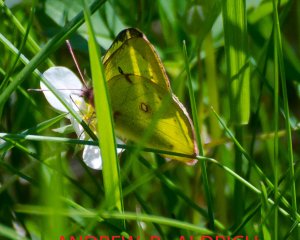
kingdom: Animalia
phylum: Arthropoda
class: Insecta
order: Lepidoptera
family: Pieridae
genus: Colias
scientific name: Colias philodice
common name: Clouded Sulphur
